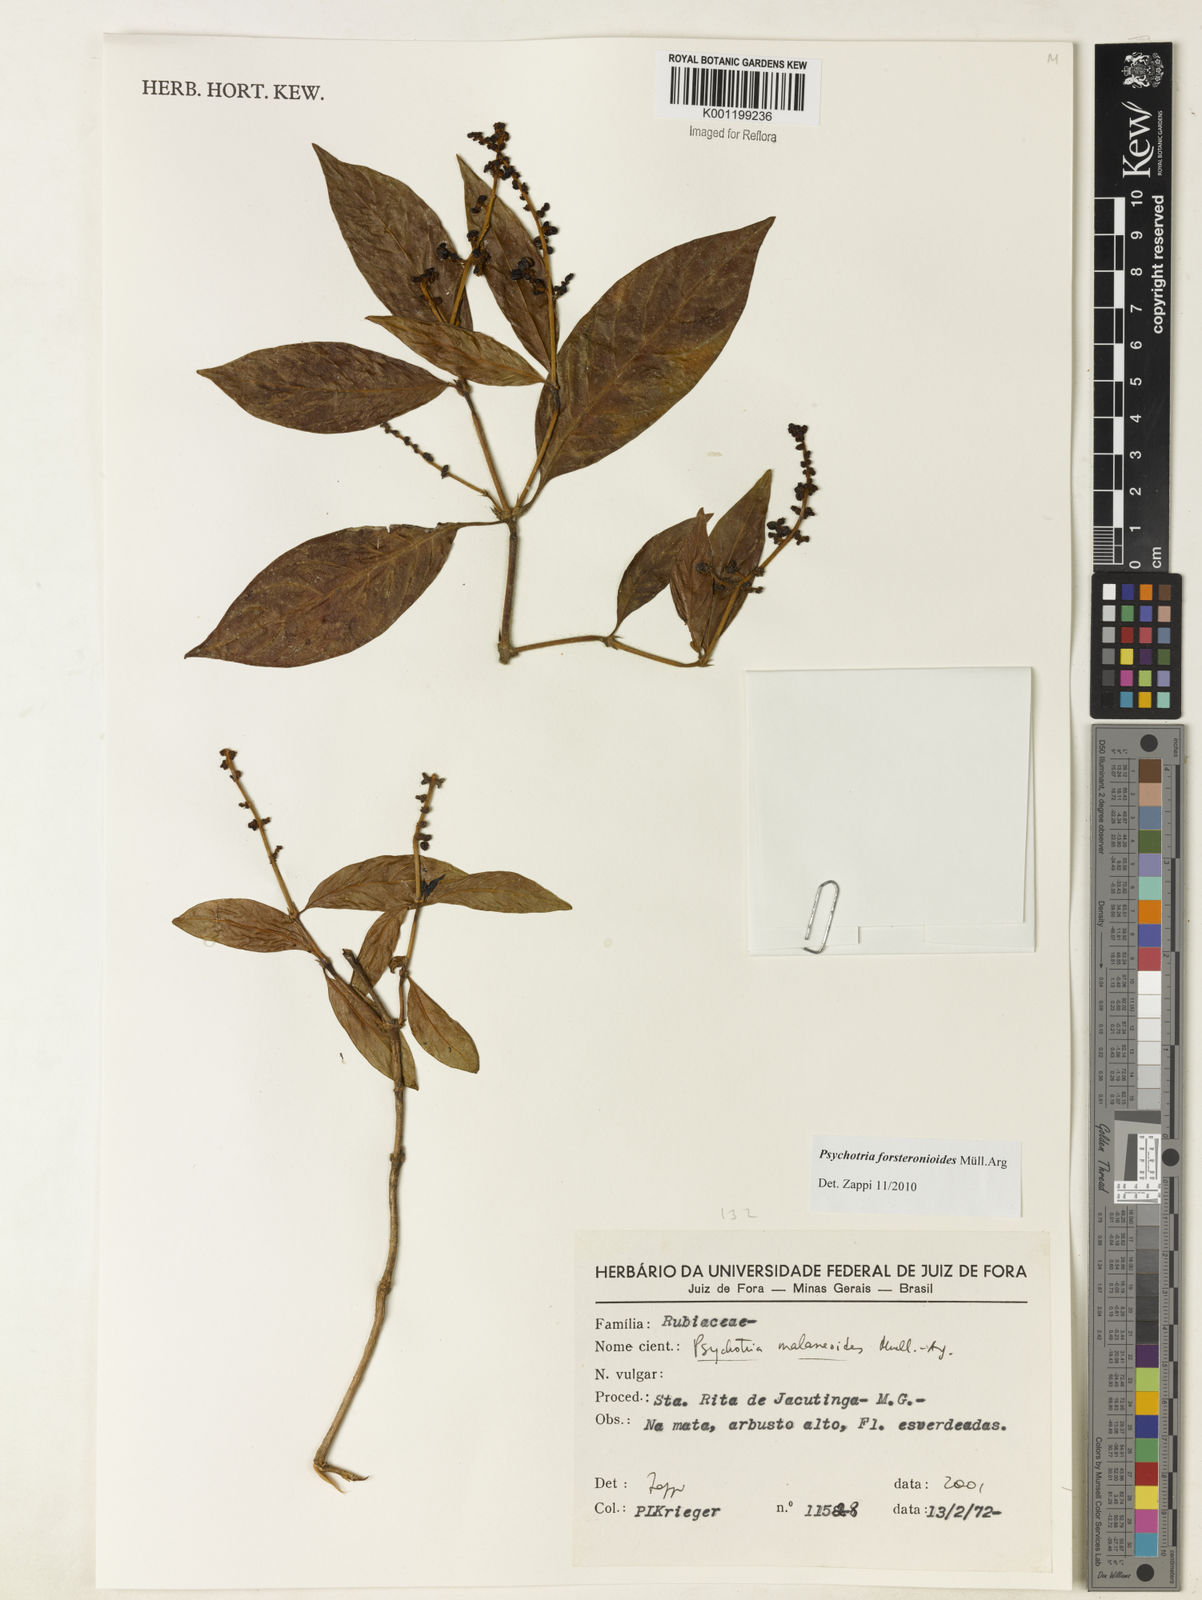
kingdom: Plantae
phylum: Tracheophyta
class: Magnoliopsida
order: Gentianales
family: Rubiaceae
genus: Psychotria
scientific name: Psychotria
